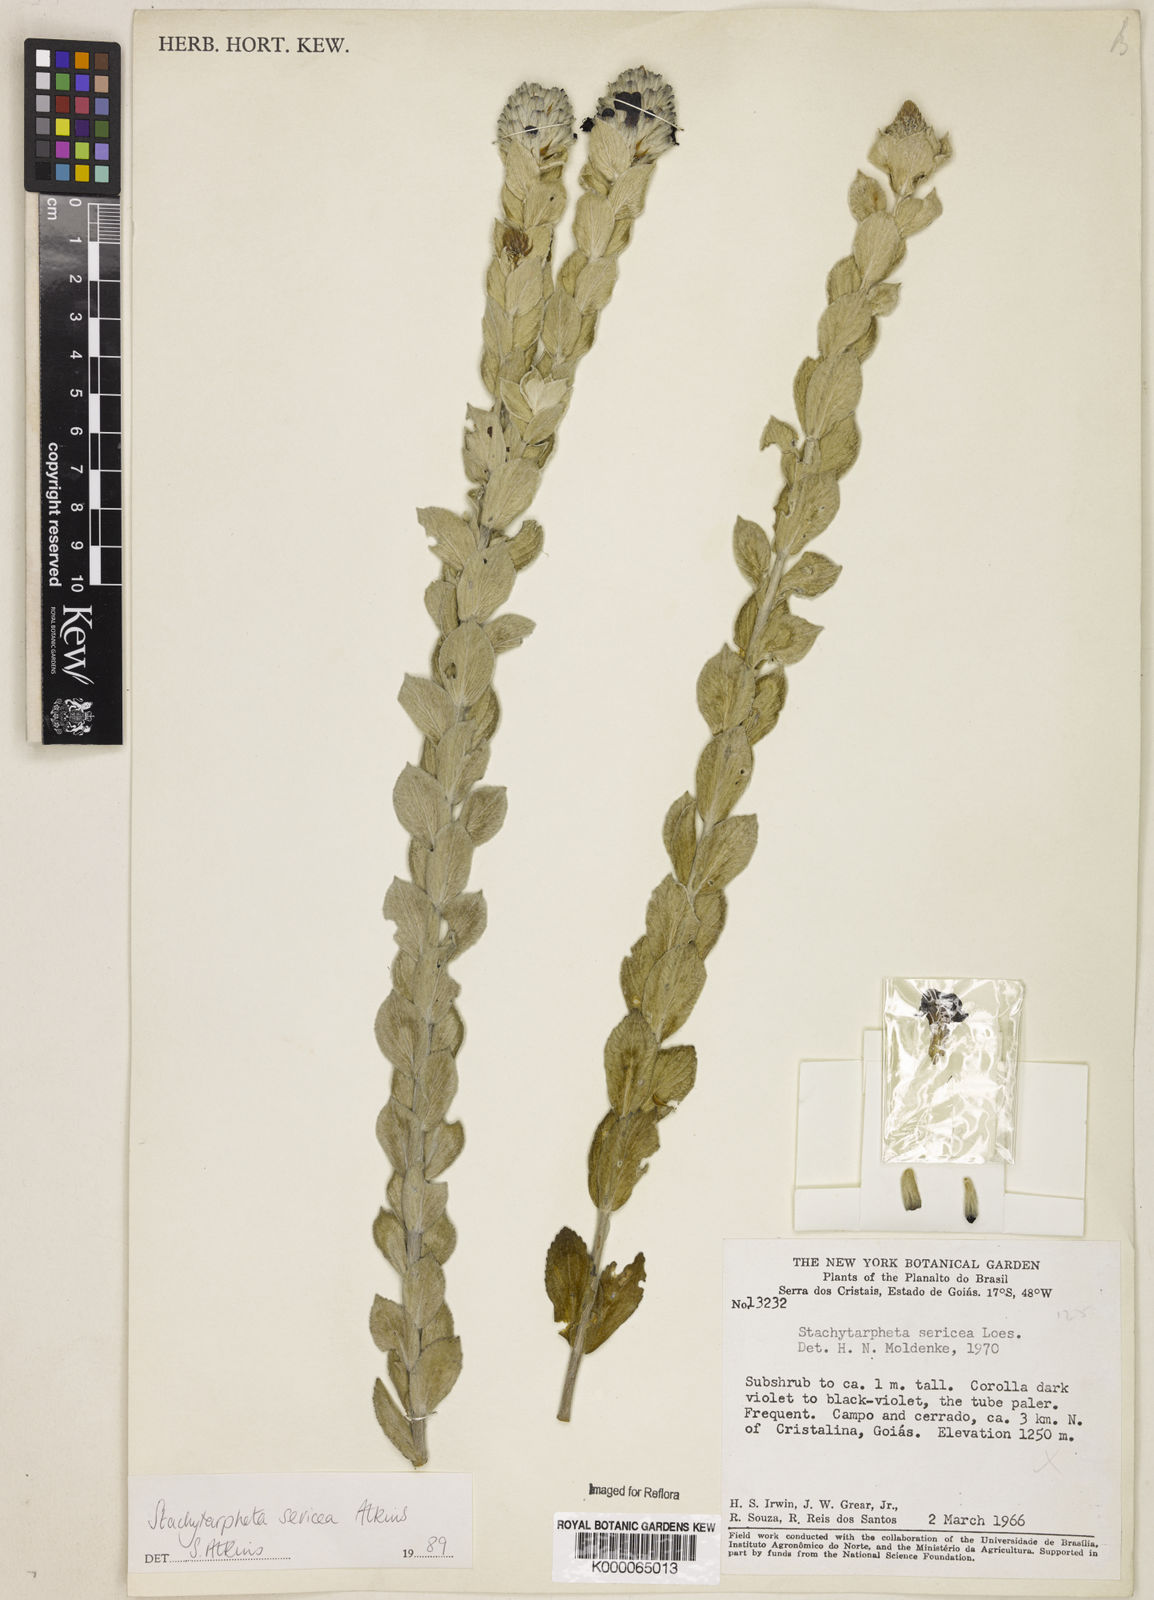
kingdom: Plantae
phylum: Tracheophyta
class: Magnoliopsida
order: Lamiales
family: Verbenaceae
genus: Stachytarpheta
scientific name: Stachytarpheta sericea
